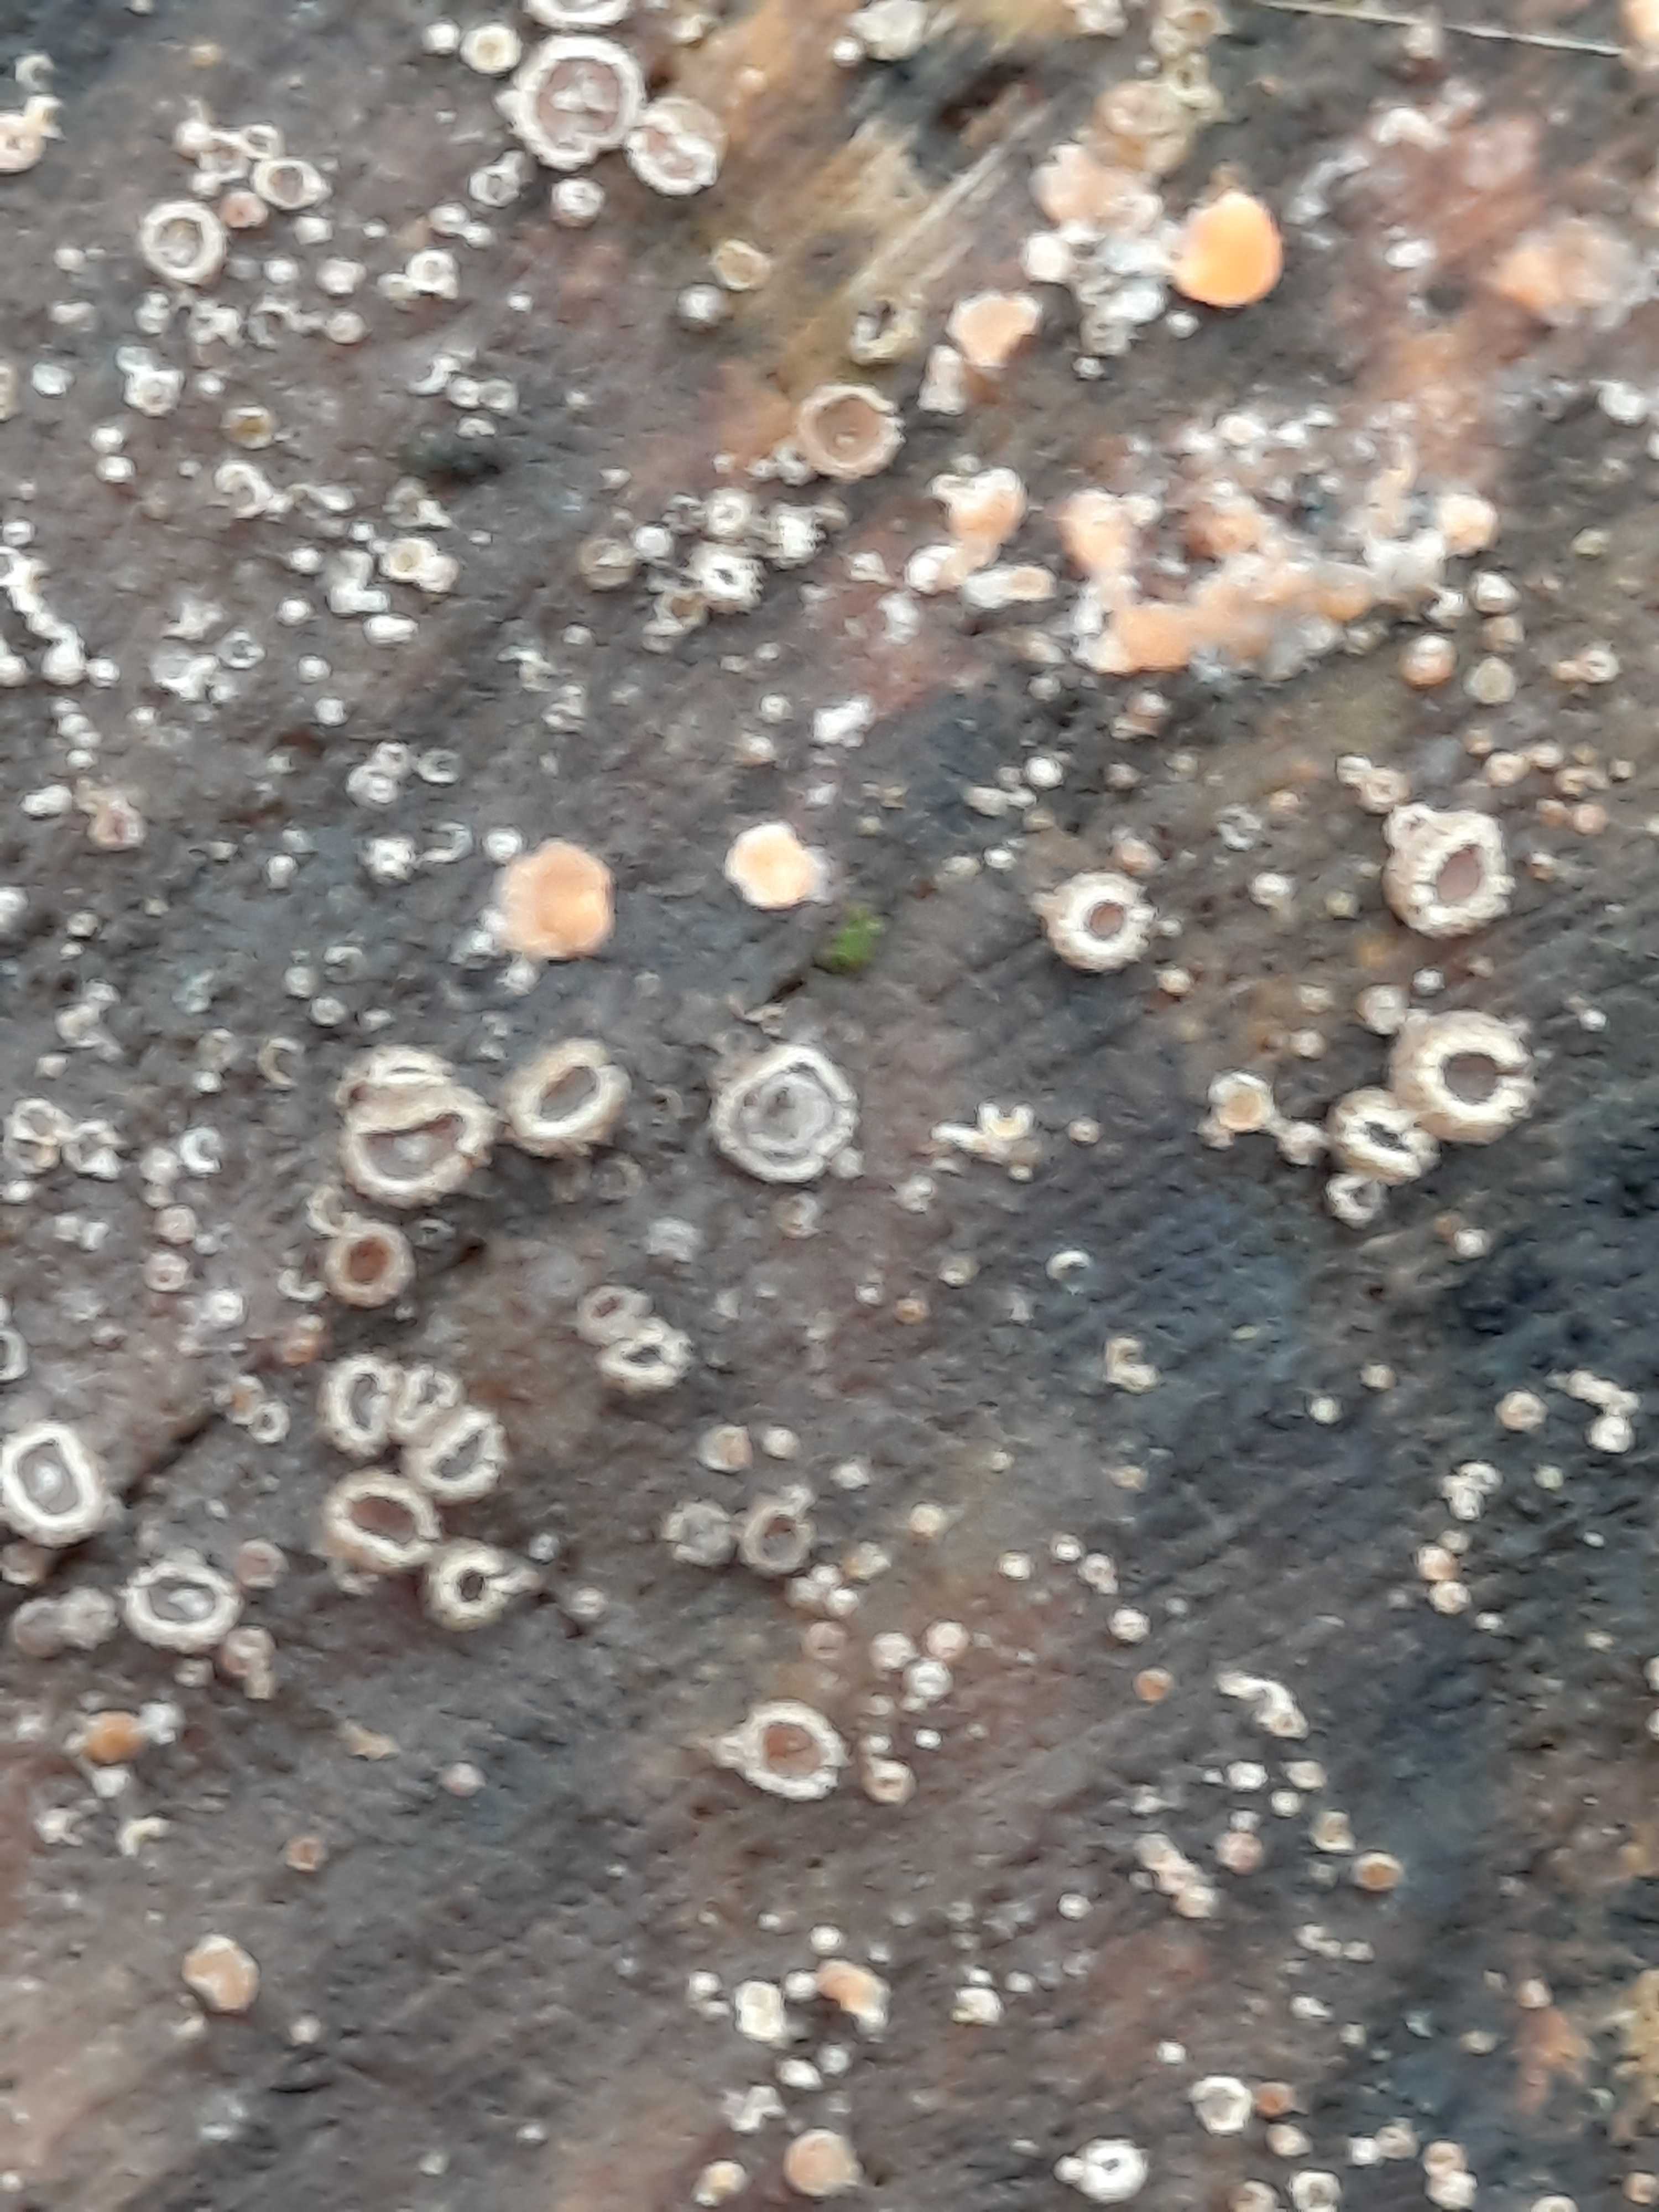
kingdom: Fungi
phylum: Ascomycota
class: Leotiomycetes
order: Helotiales
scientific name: Helotiales
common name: stilkskiveordenen
